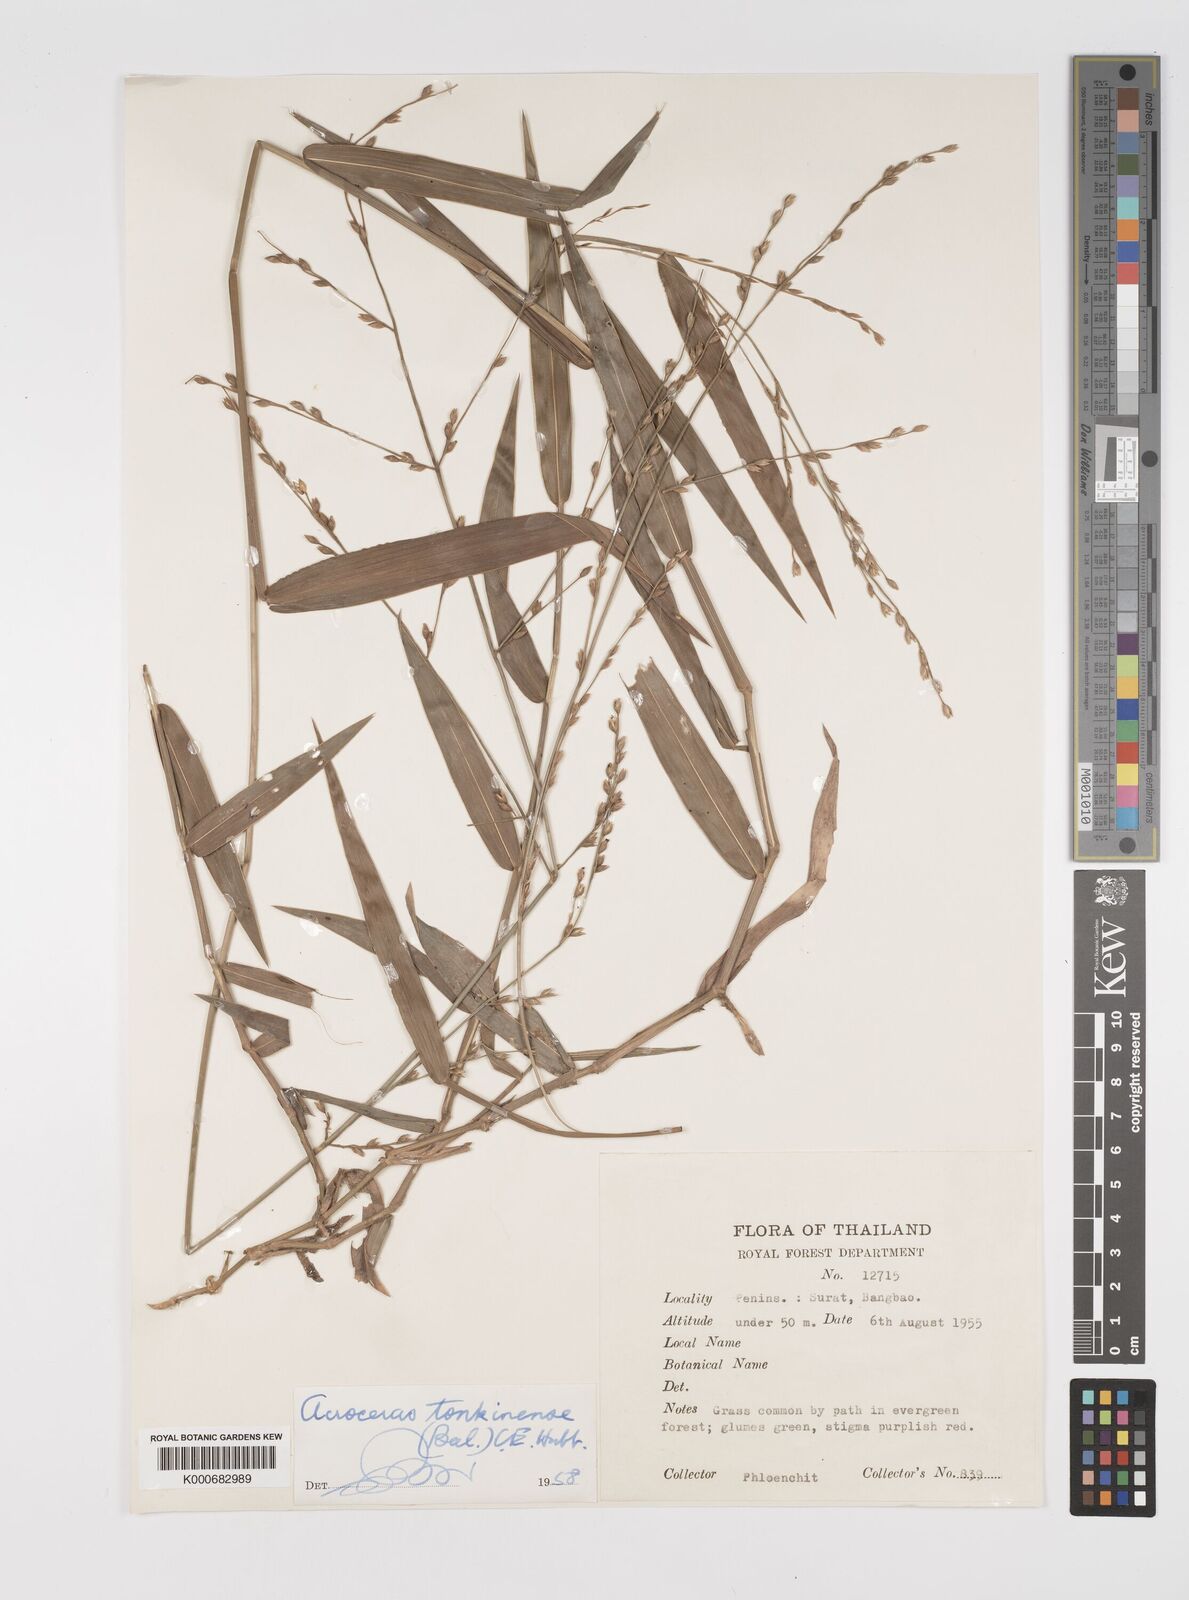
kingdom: Plantae
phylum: Tracheophyta
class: Liliopsida
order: Poales
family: Poaceae
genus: Acroceras
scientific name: Acroceras
